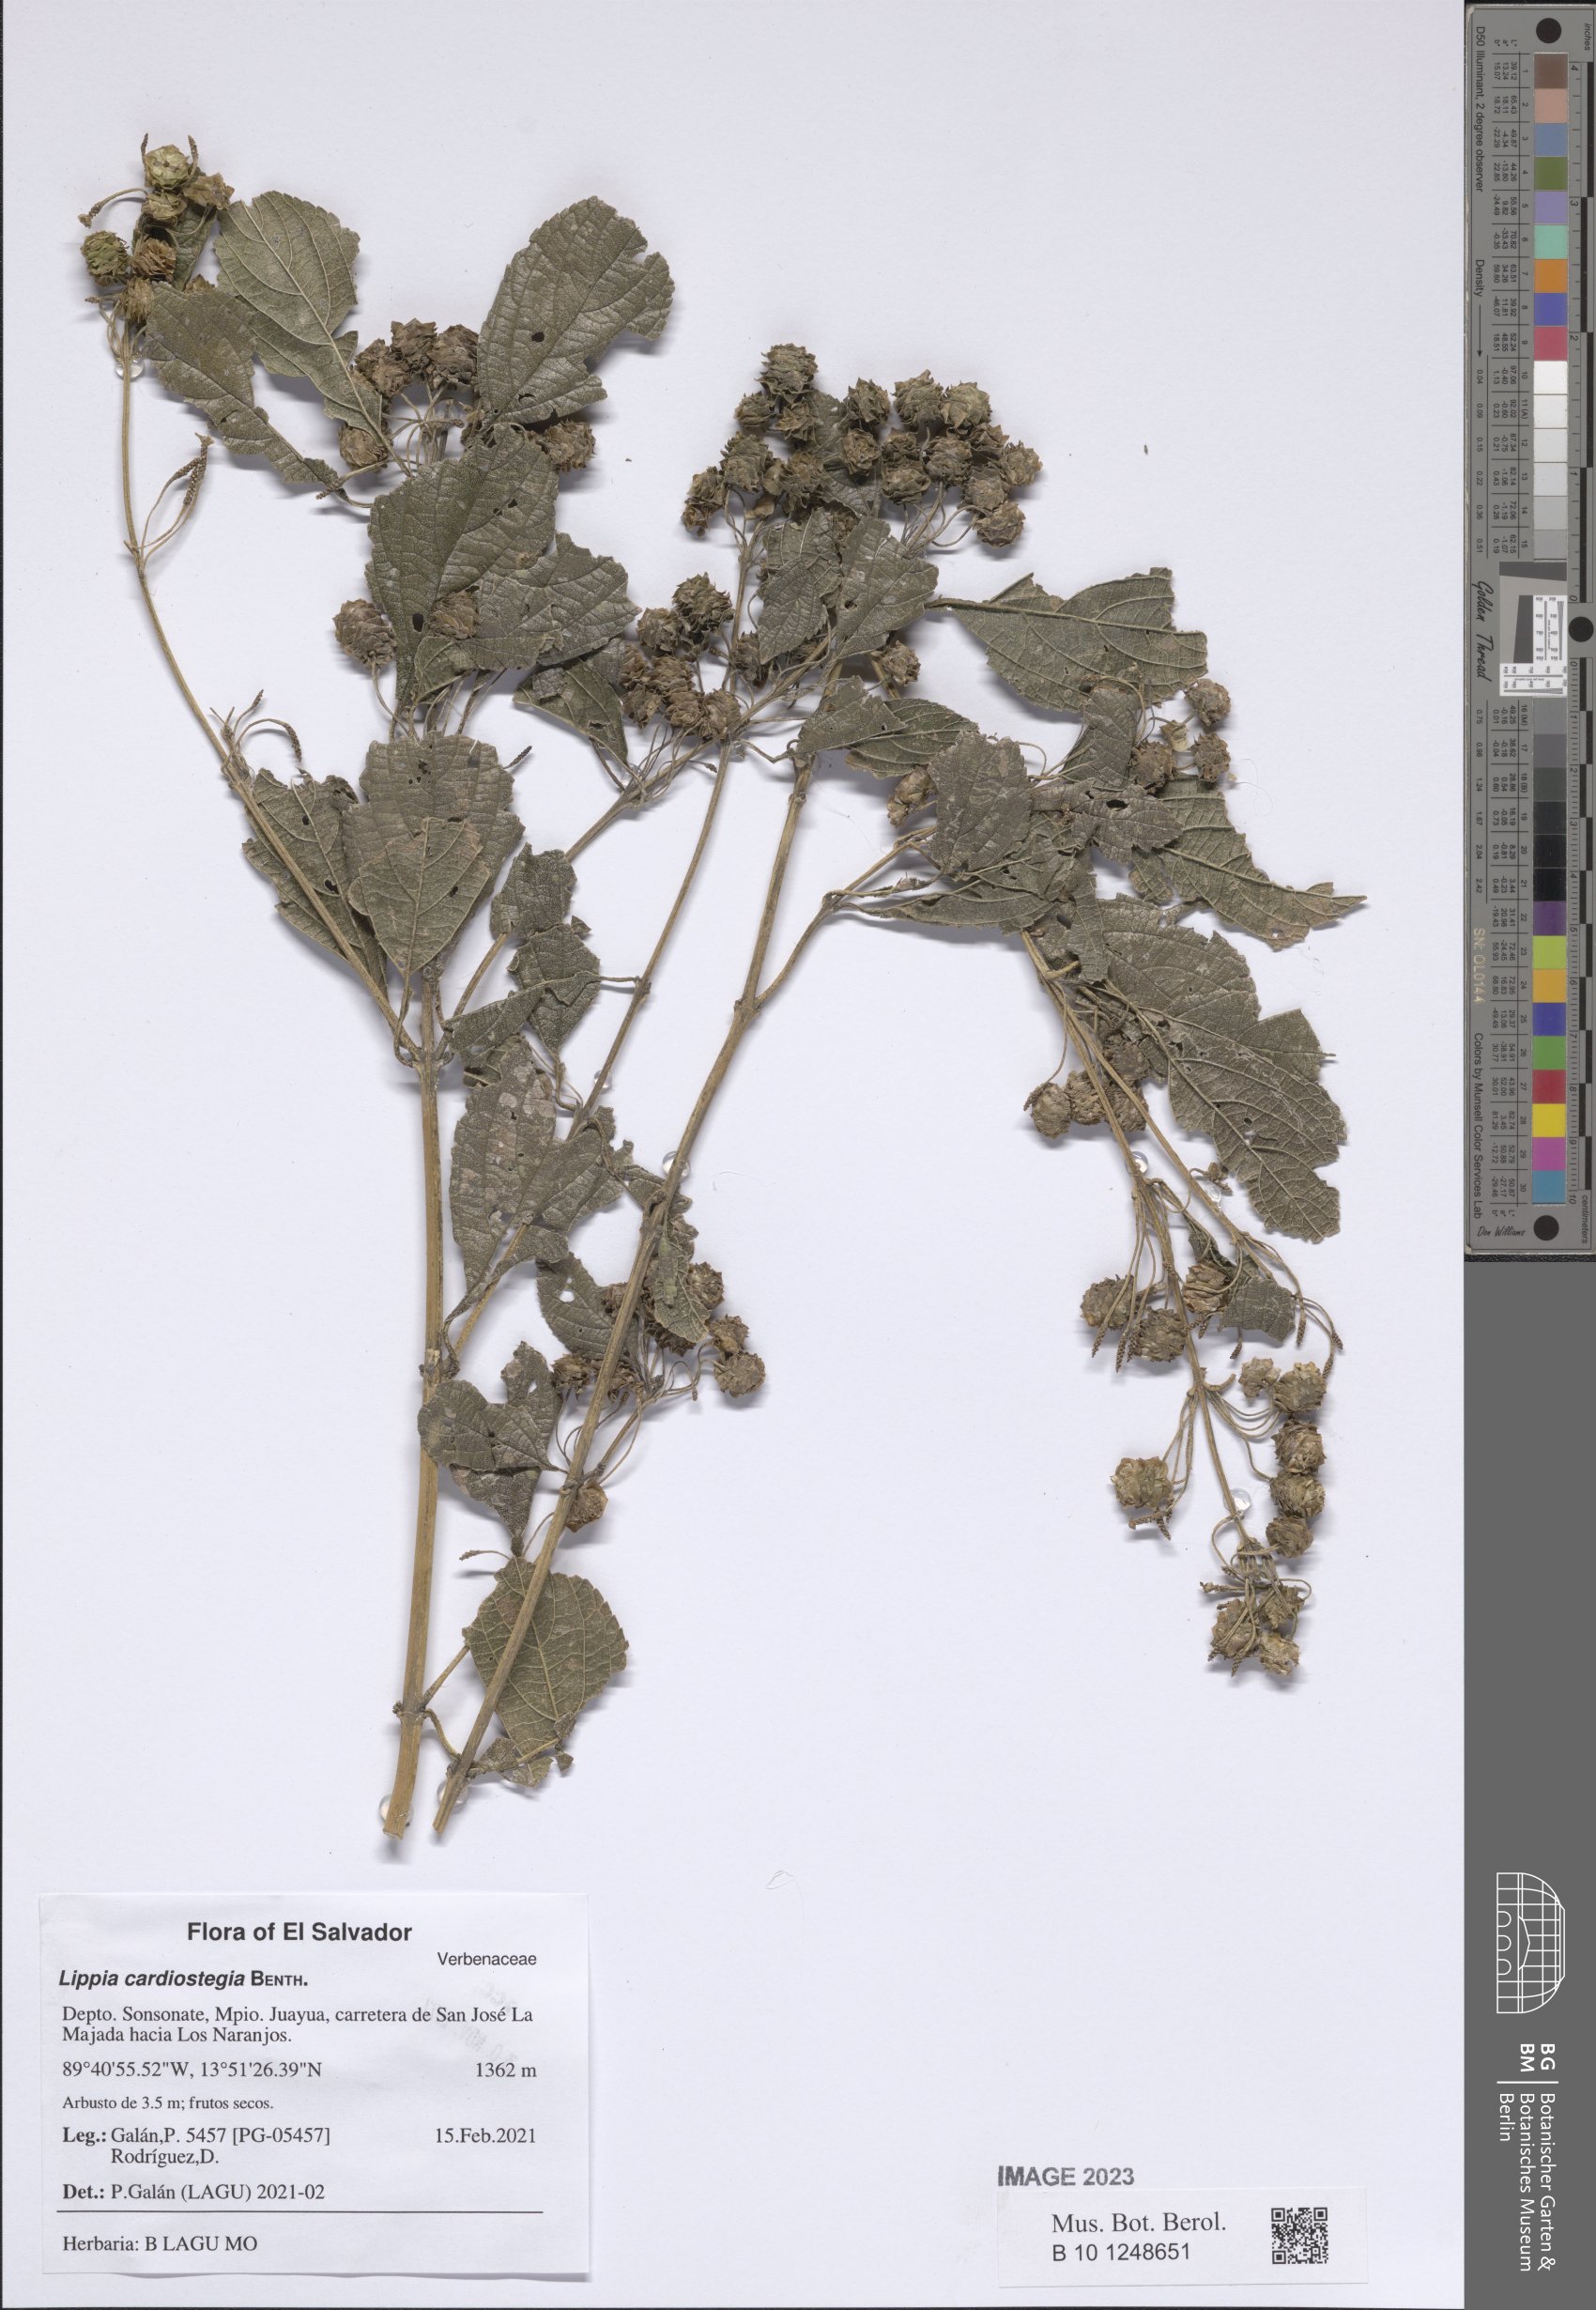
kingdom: Plantae
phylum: Tracheophyta
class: Magnoliopsida
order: Lamiales
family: Verbenaceae
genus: Lippia
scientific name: Lippia cardiostegia
